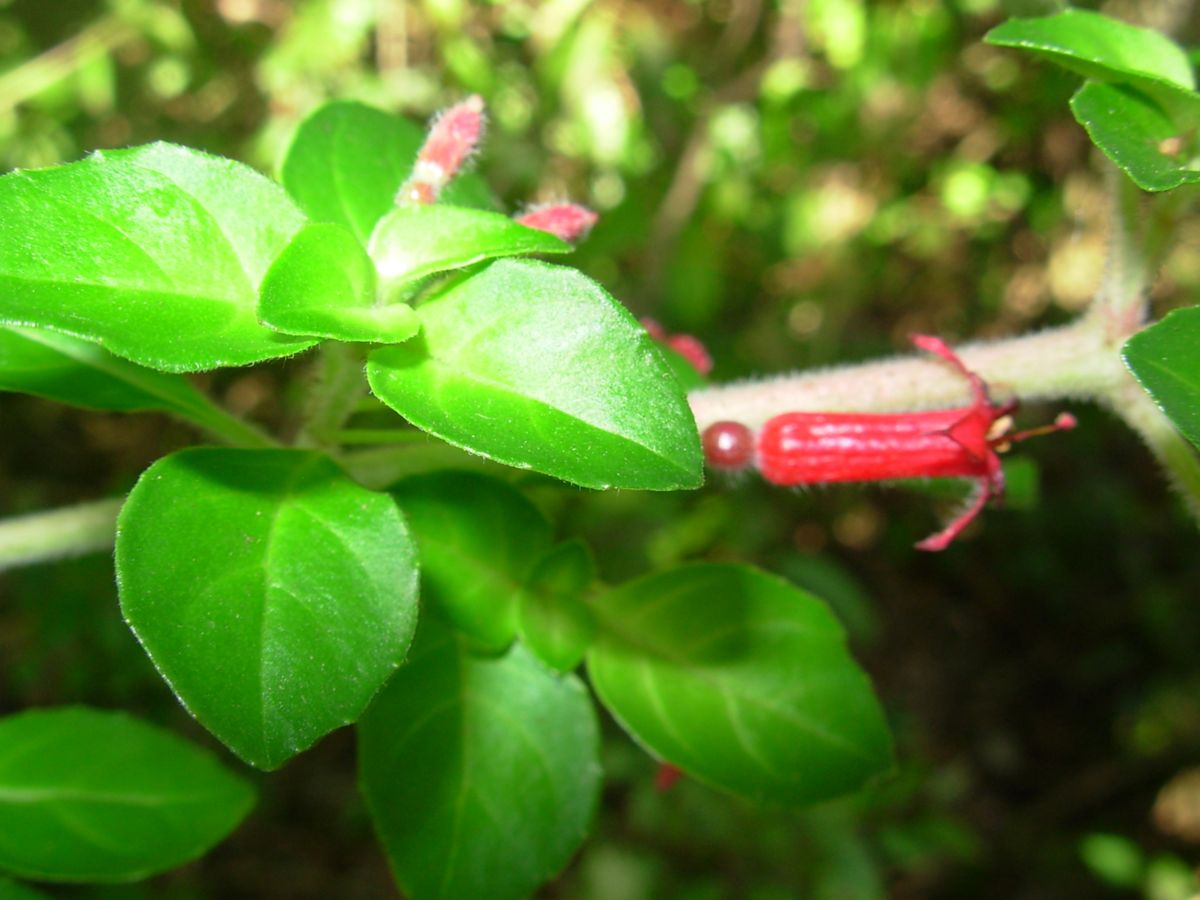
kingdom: Plantae
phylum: Tracheophyta
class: Magnoliopsida
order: Myrtales
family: Onagraceae
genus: Fuchsia
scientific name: Fuchsia microphylla
